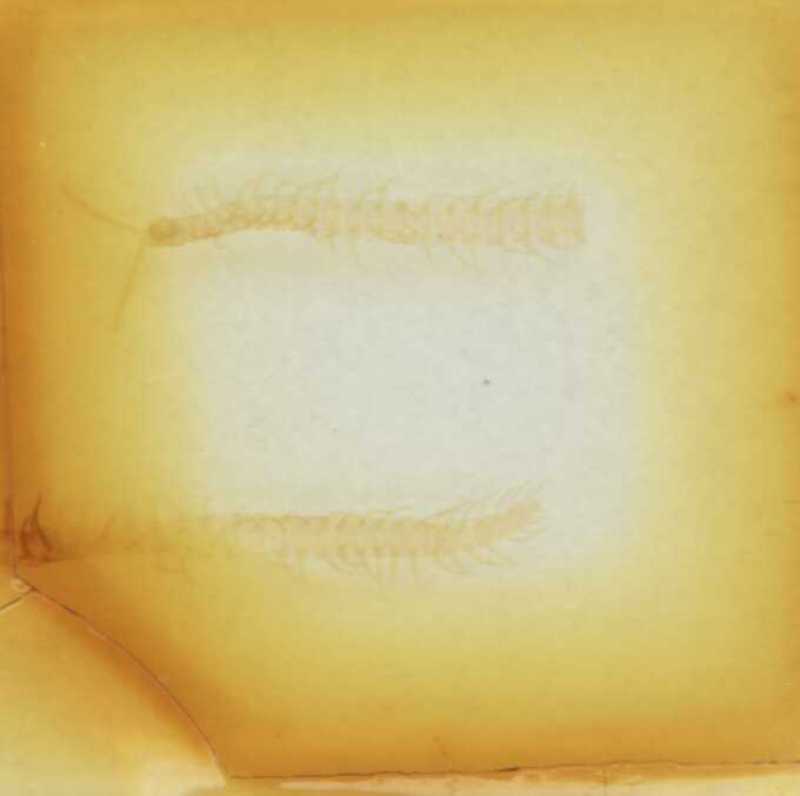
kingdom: Animalia
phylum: Arthropoda
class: Chilopoda
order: Geophilomorpha
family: Linotaeniidae
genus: Strigamia
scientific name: Strigamia crassipes
